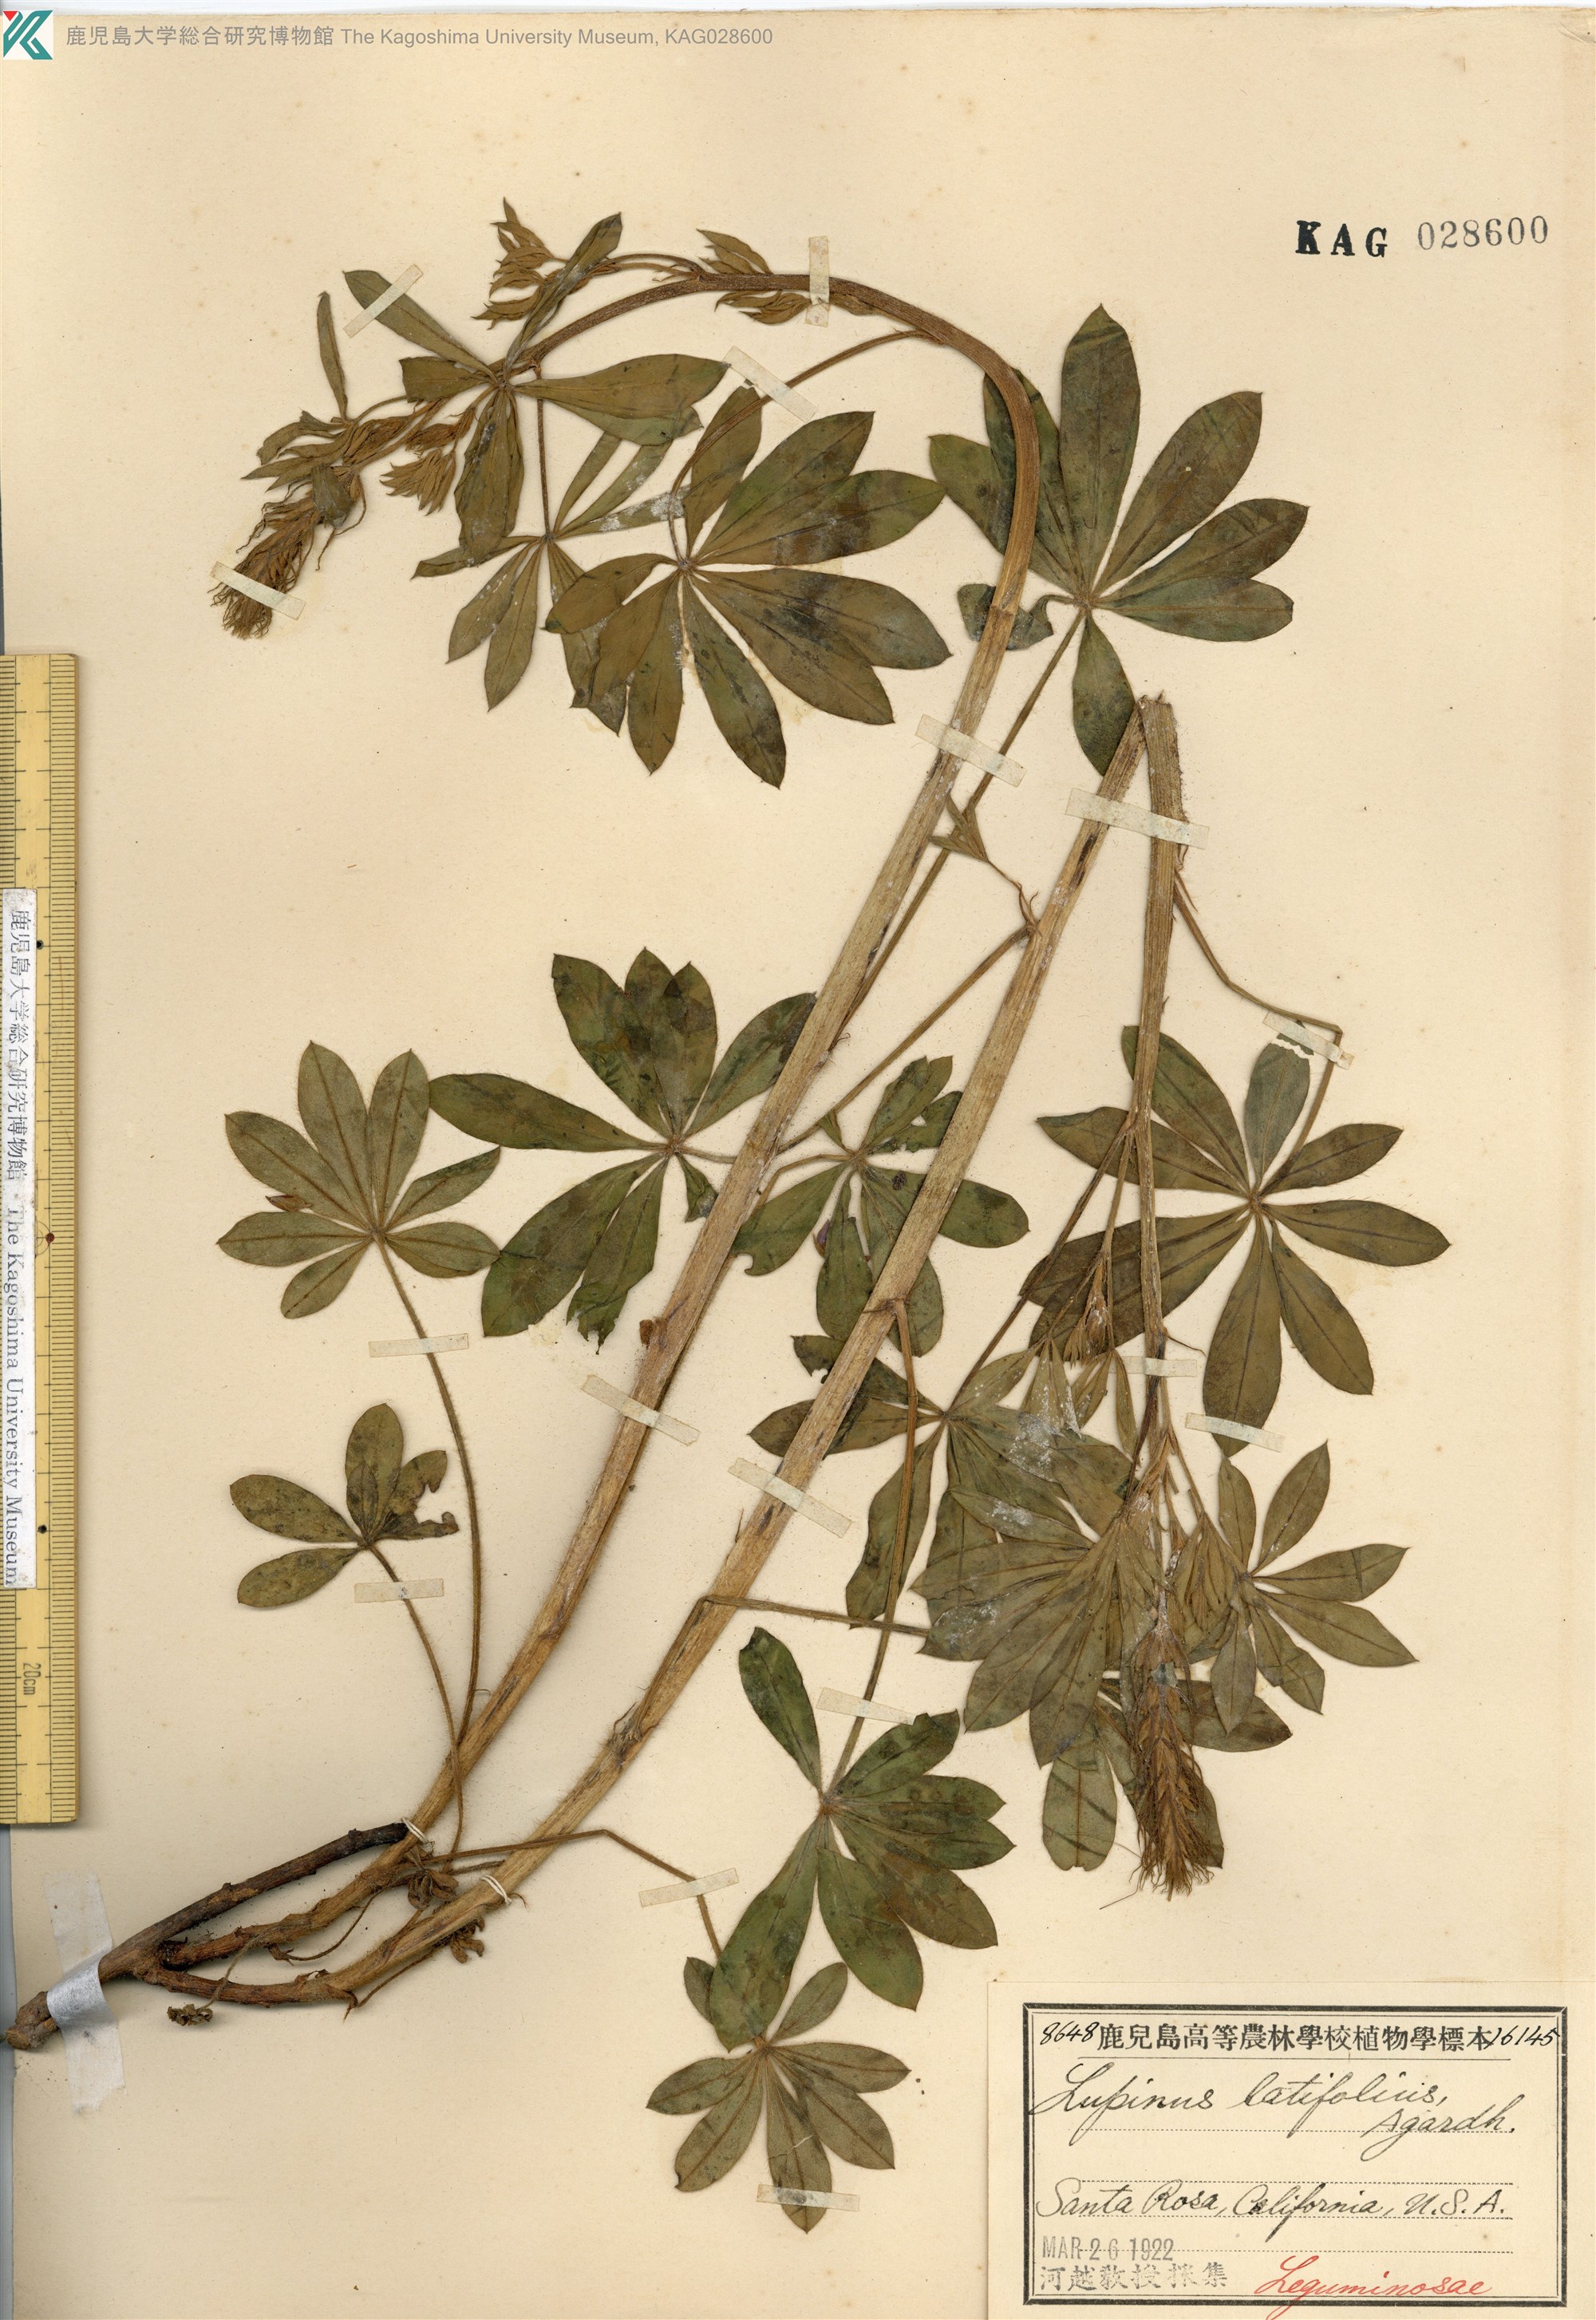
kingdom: Plantae
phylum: Tracheophyta
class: Magnoliopsida
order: Fabales
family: Fabaceae
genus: Lupinus
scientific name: Lupinus latifolius
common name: Broad-leaved lupine
